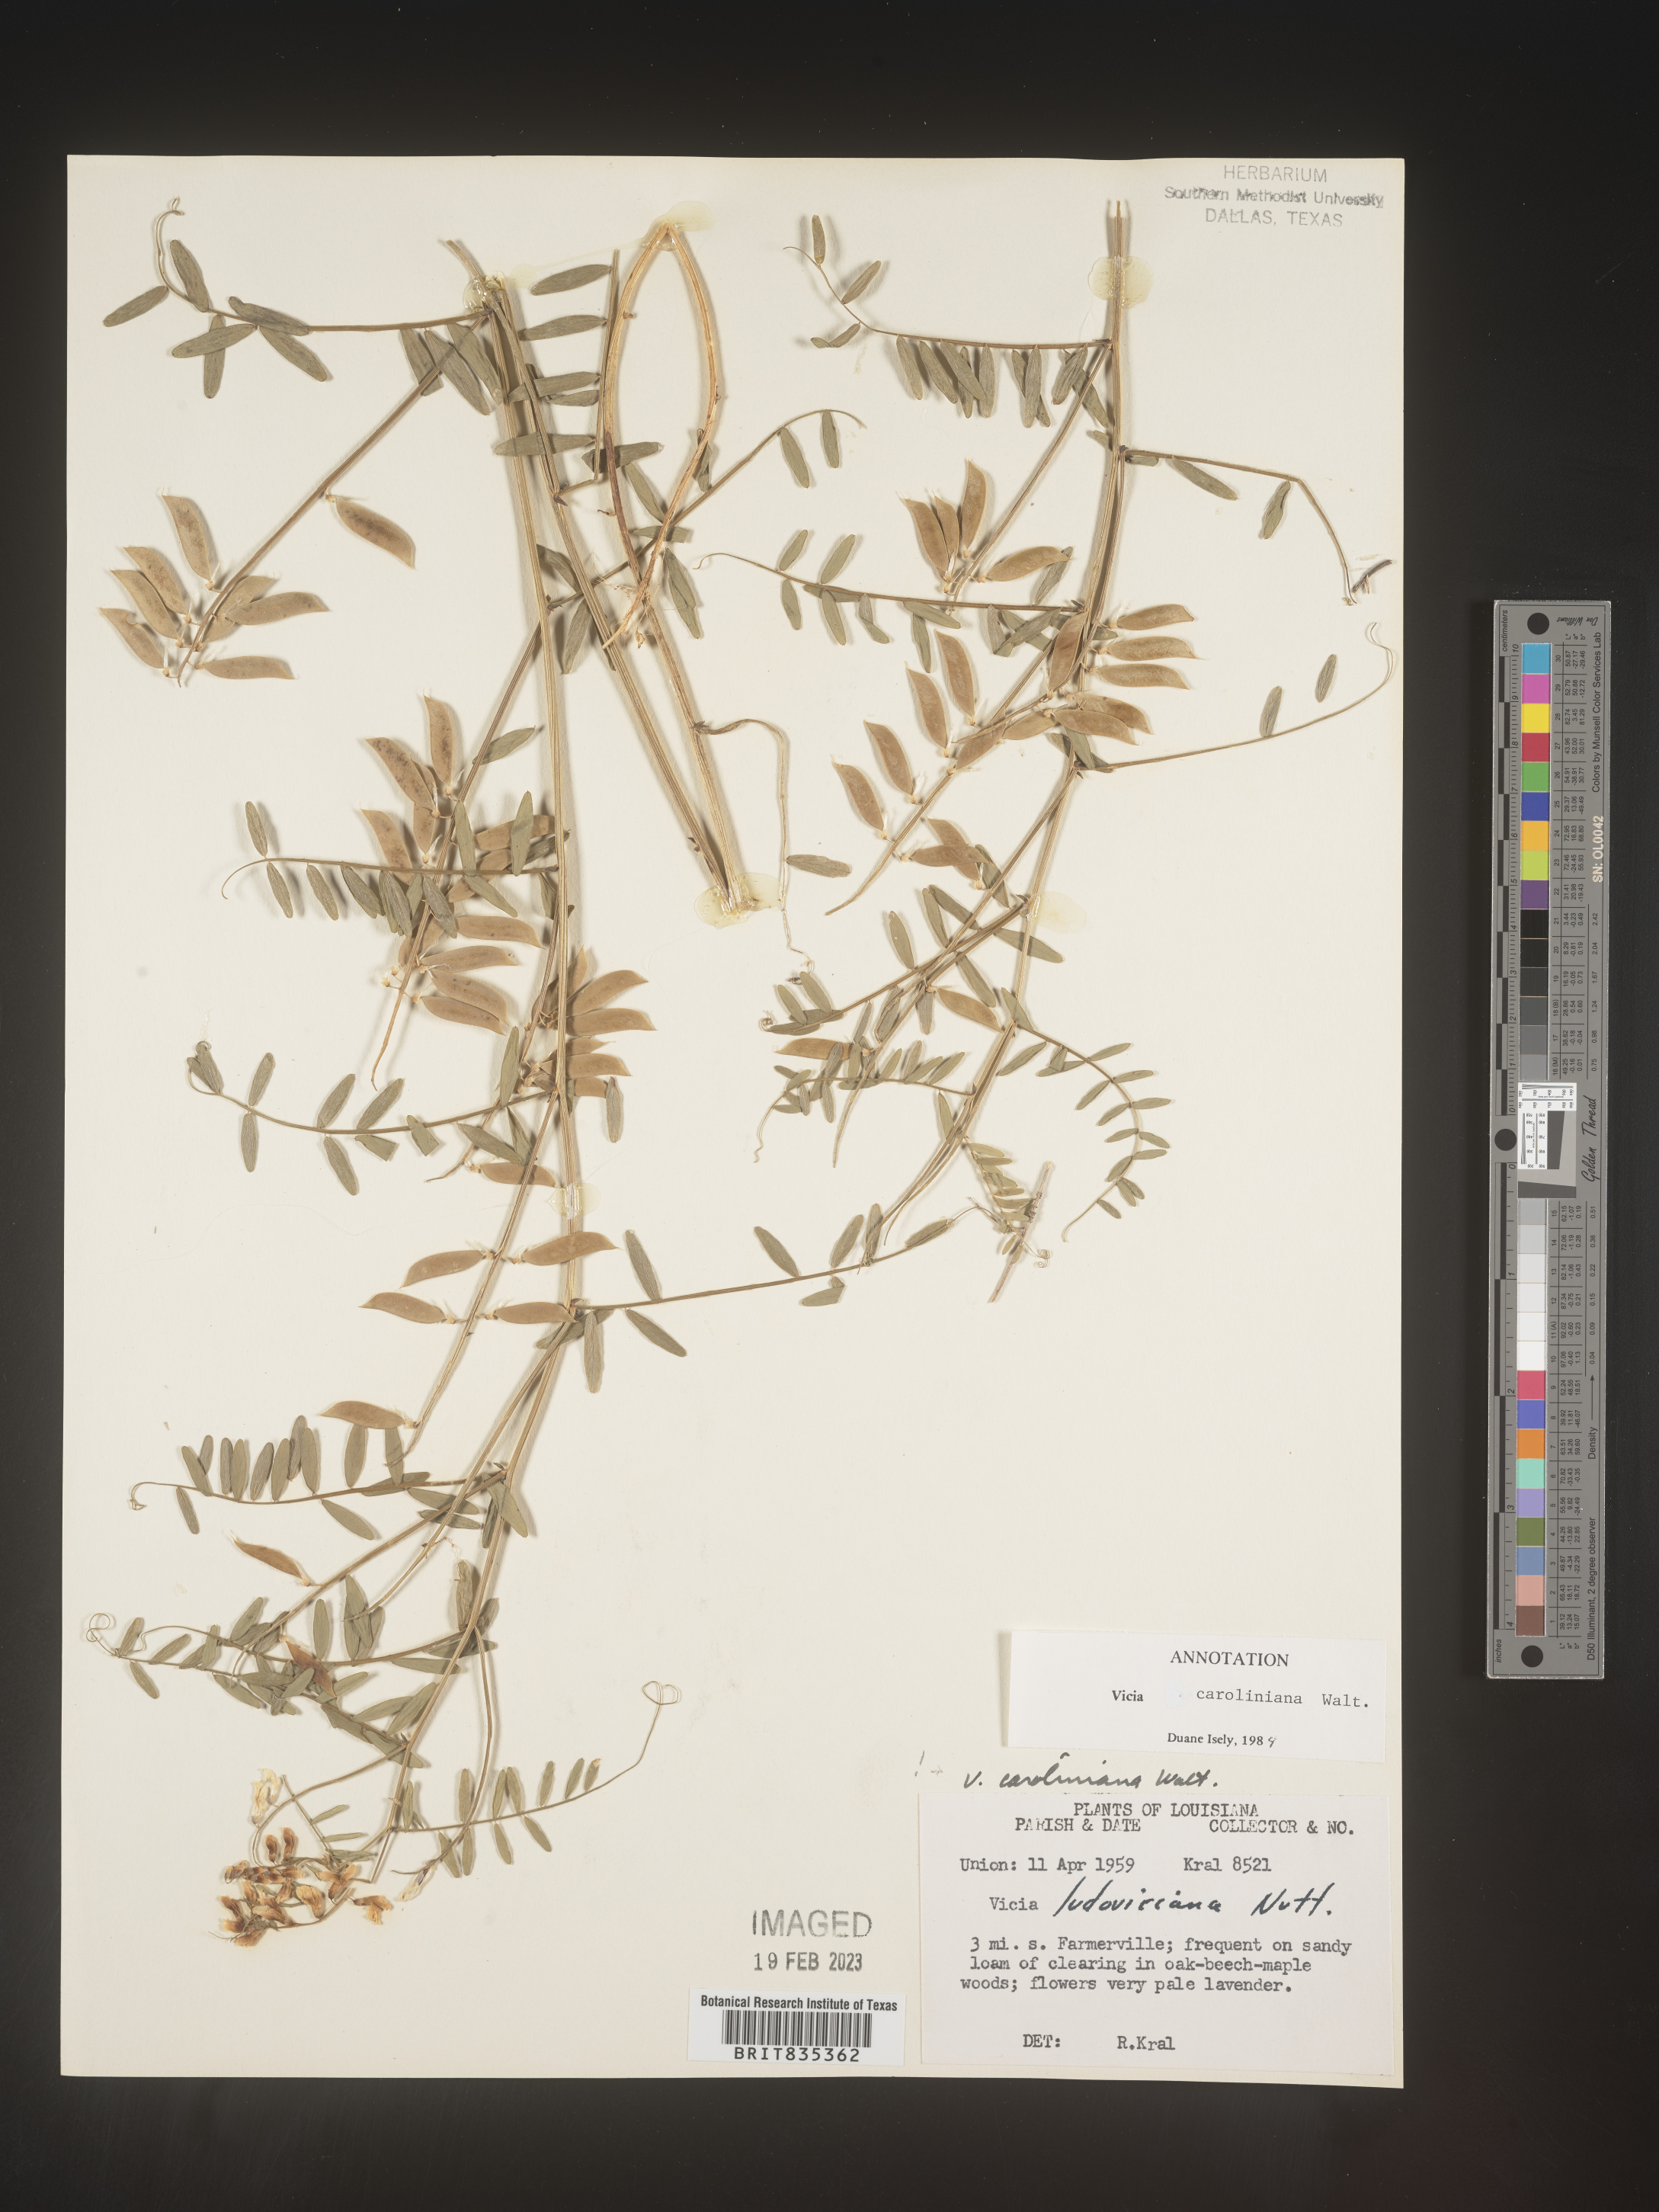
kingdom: Plantae
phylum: Tracheophyta
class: Magnoliopsida
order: Fabales
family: Fabaceae
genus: Vicia
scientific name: Vicia caroliniana
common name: Carolina vetch
